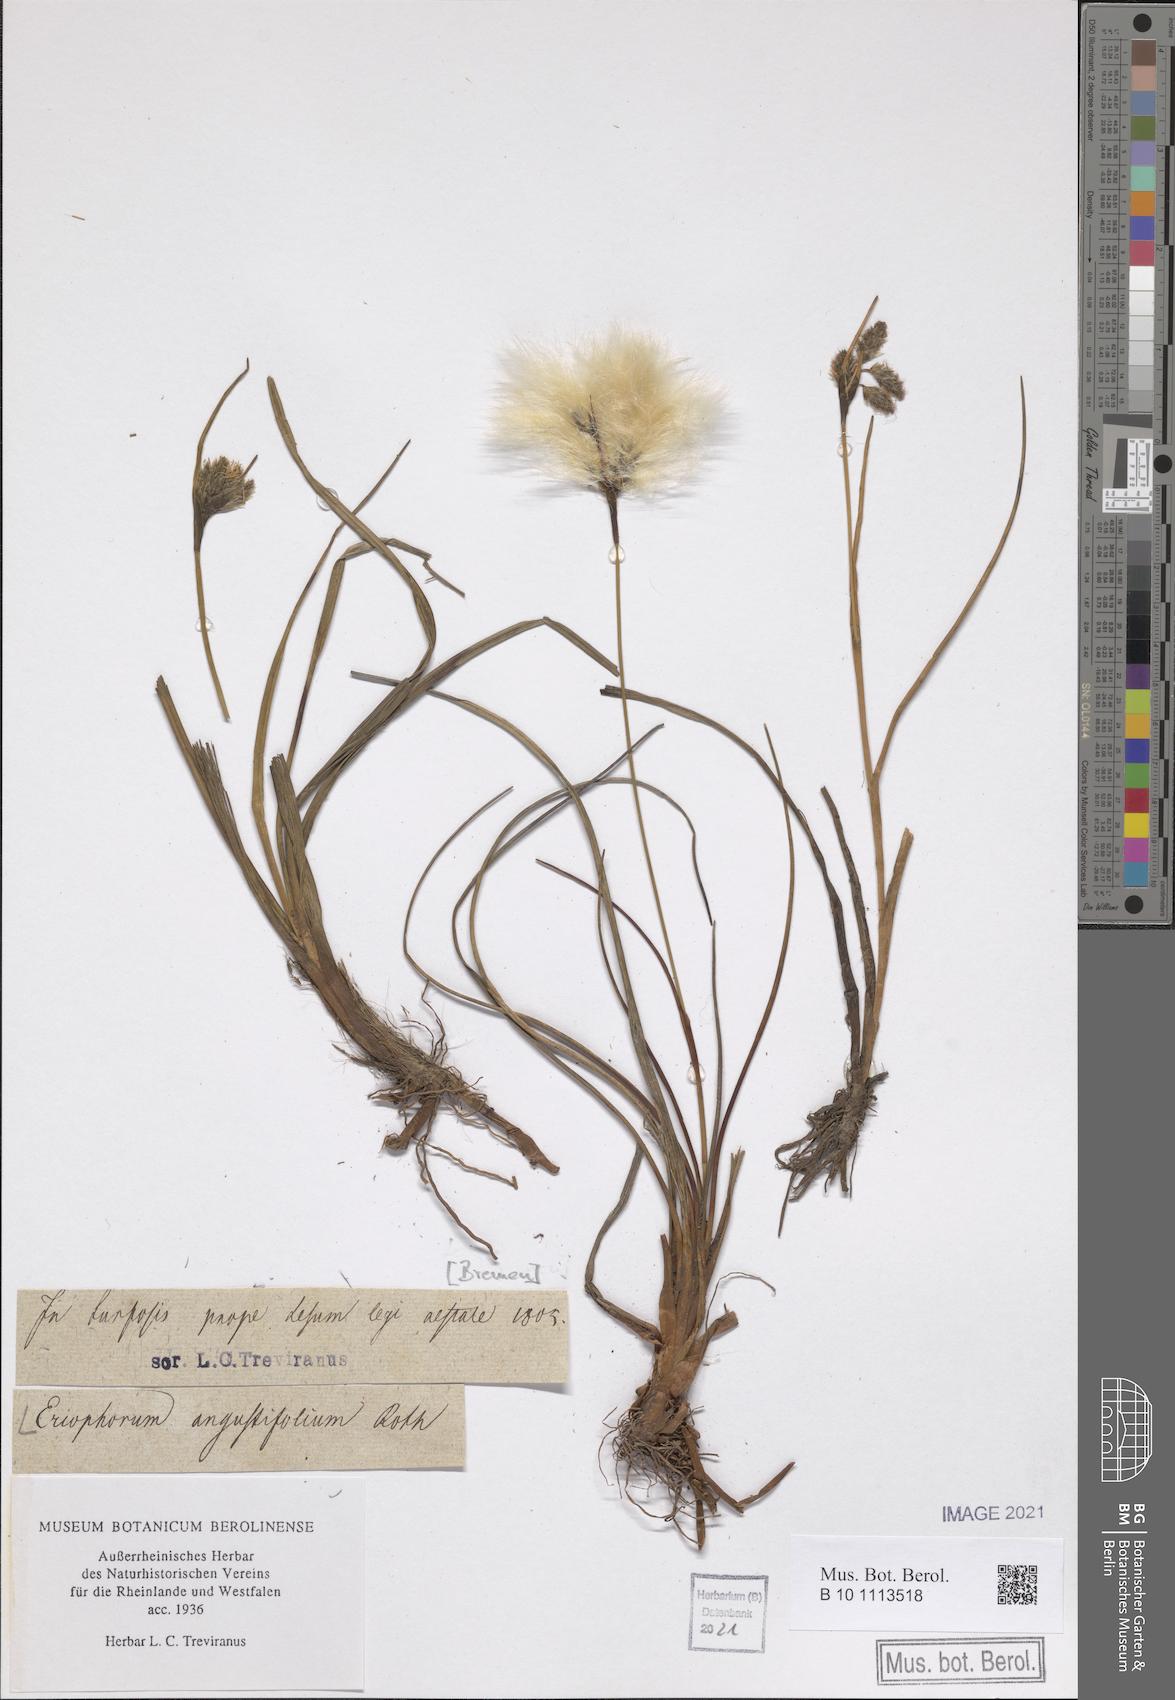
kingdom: Plantae
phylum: Tracheophyta
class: Liliopsida
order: Poales
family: Cyperaceae
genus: Eriophorum
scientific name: Eriophorum angustifolium
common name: Common cottongrass
